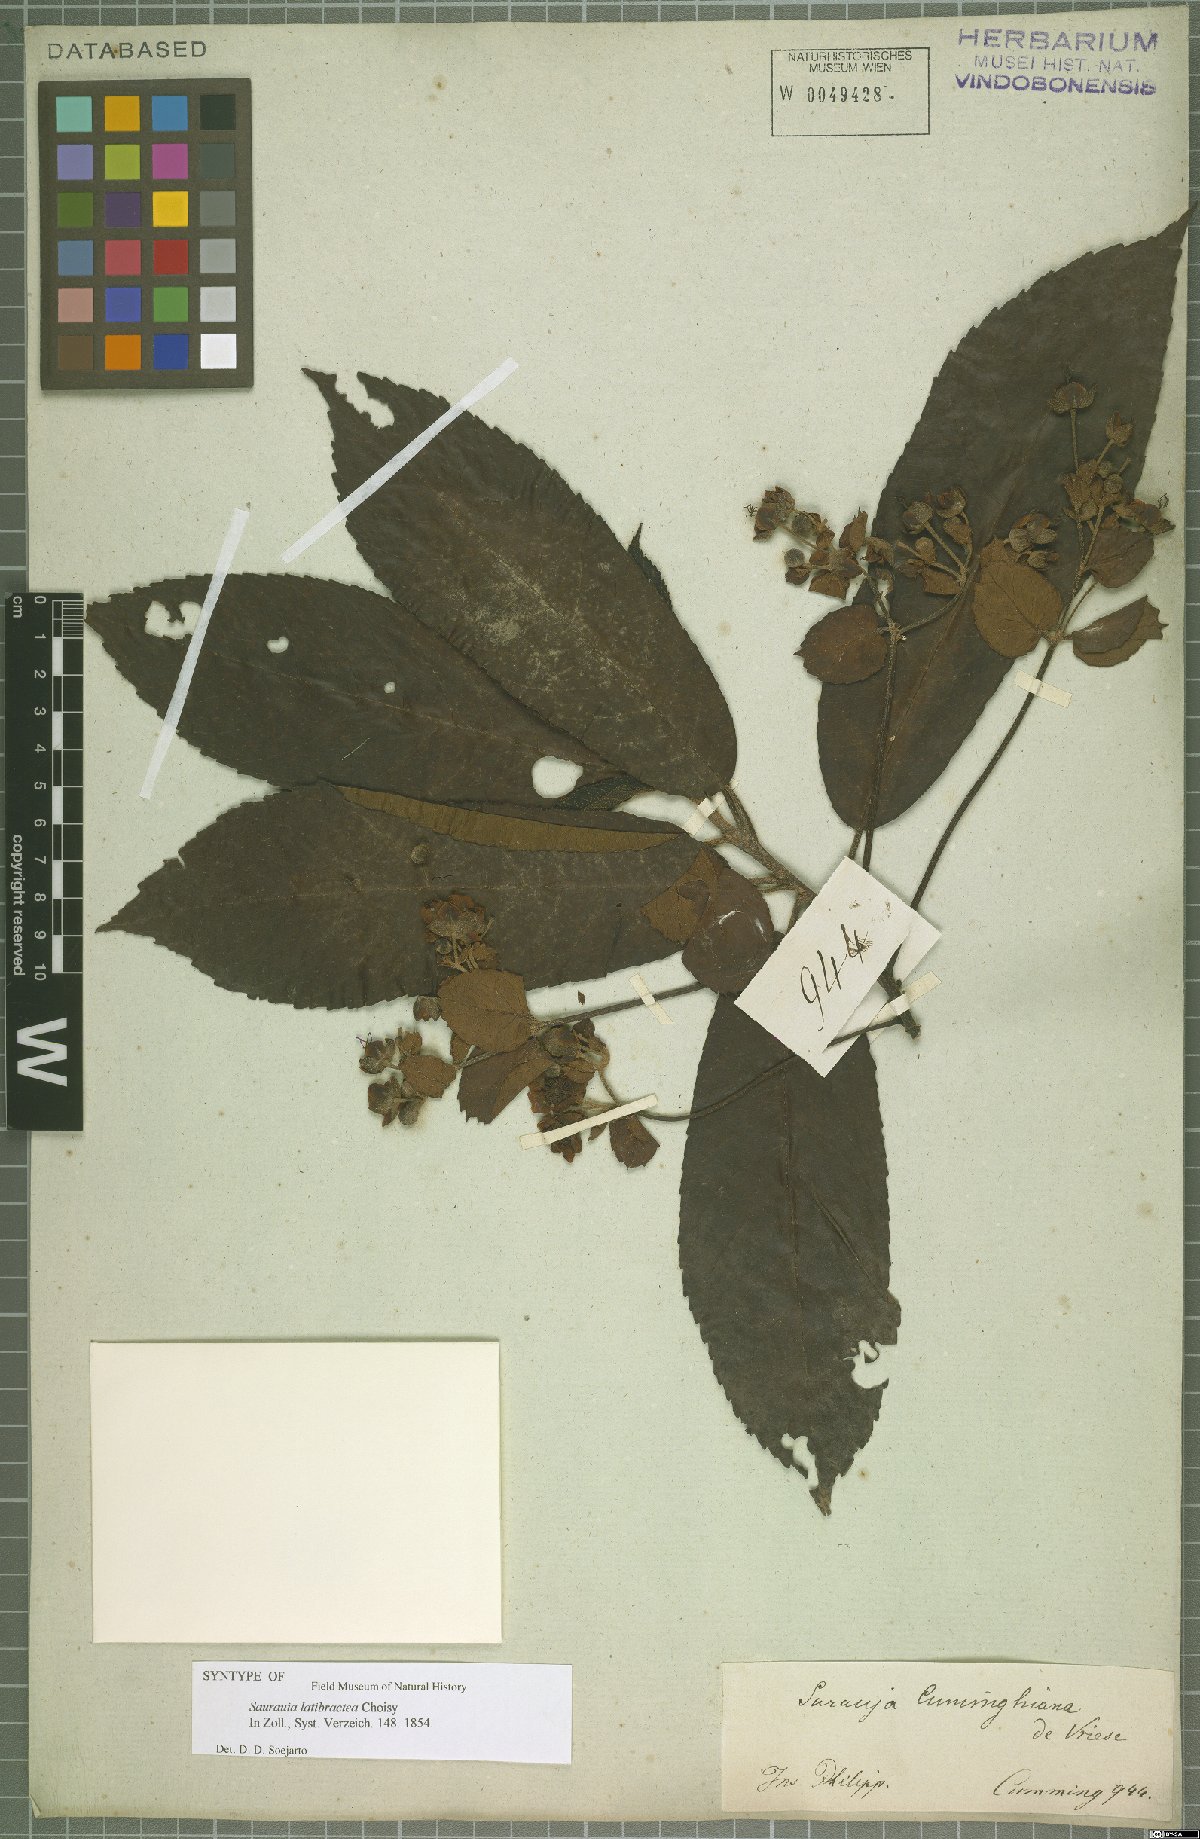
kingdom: Plantae
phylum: Tracheophyta
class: Magnoliopsida
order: Ericales
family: Actinidiaceae
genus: Saurauia
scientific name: Saurauia latibractea
